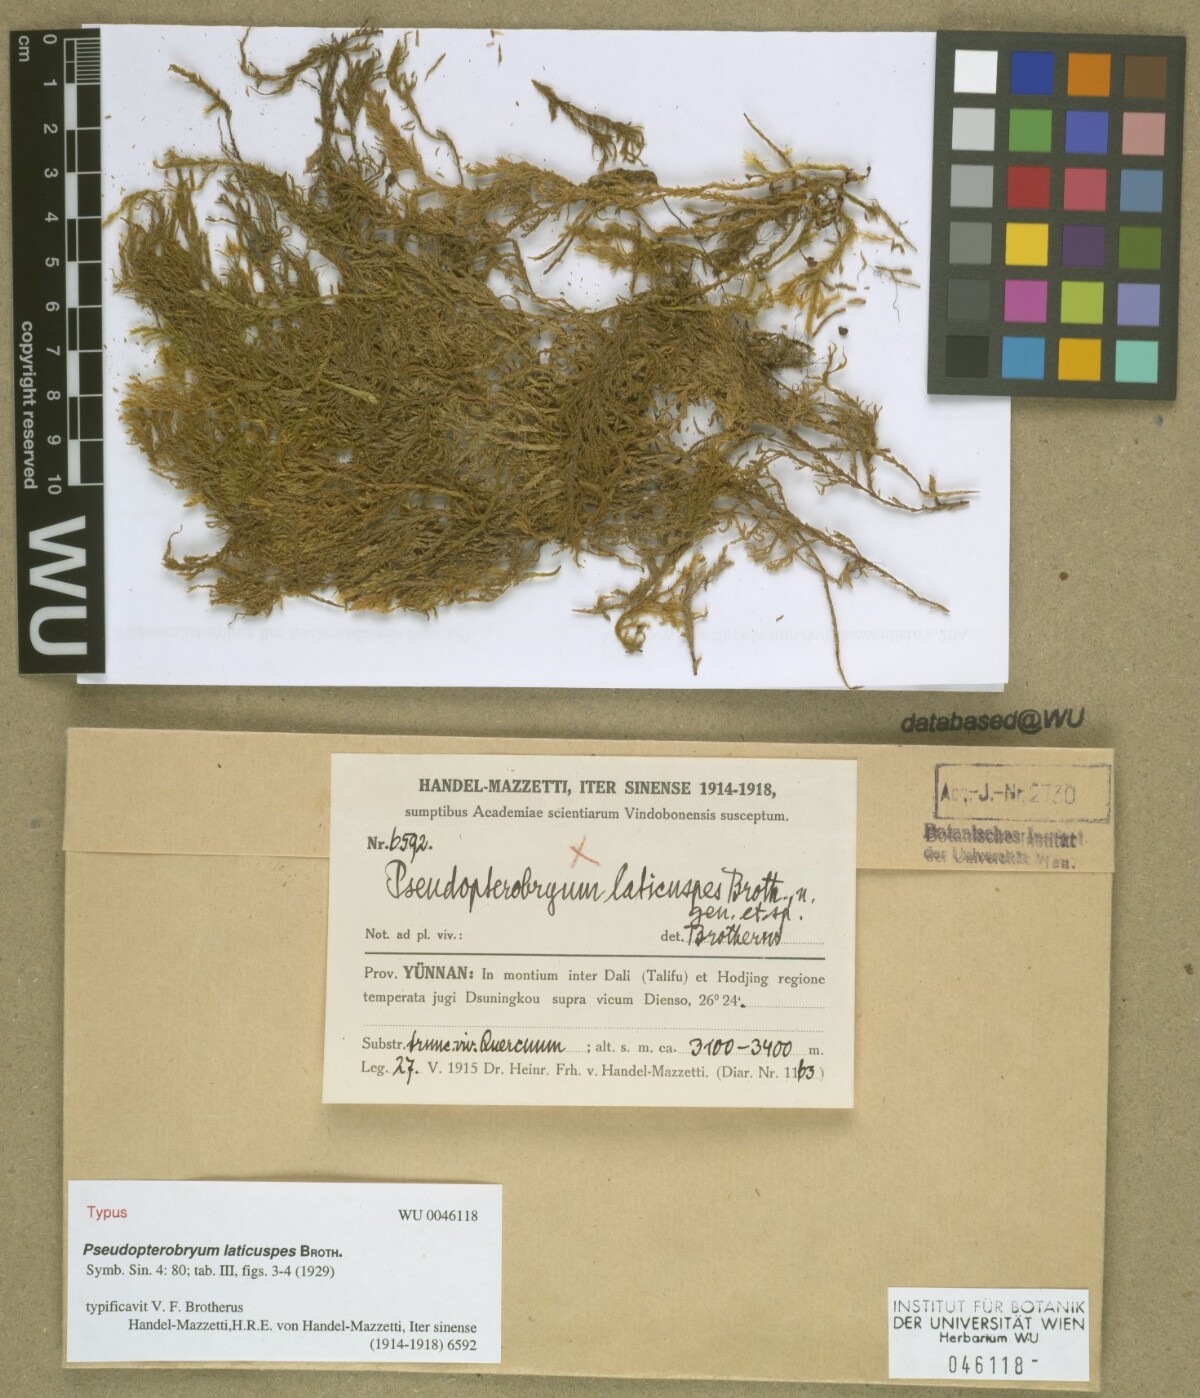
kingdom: Plantae
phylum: Bryophyta
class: Bryopsida
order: Hypnales
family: Neckeraceae
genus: Pseudopterobryum
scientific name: Pseudopterobryum laticuspis
